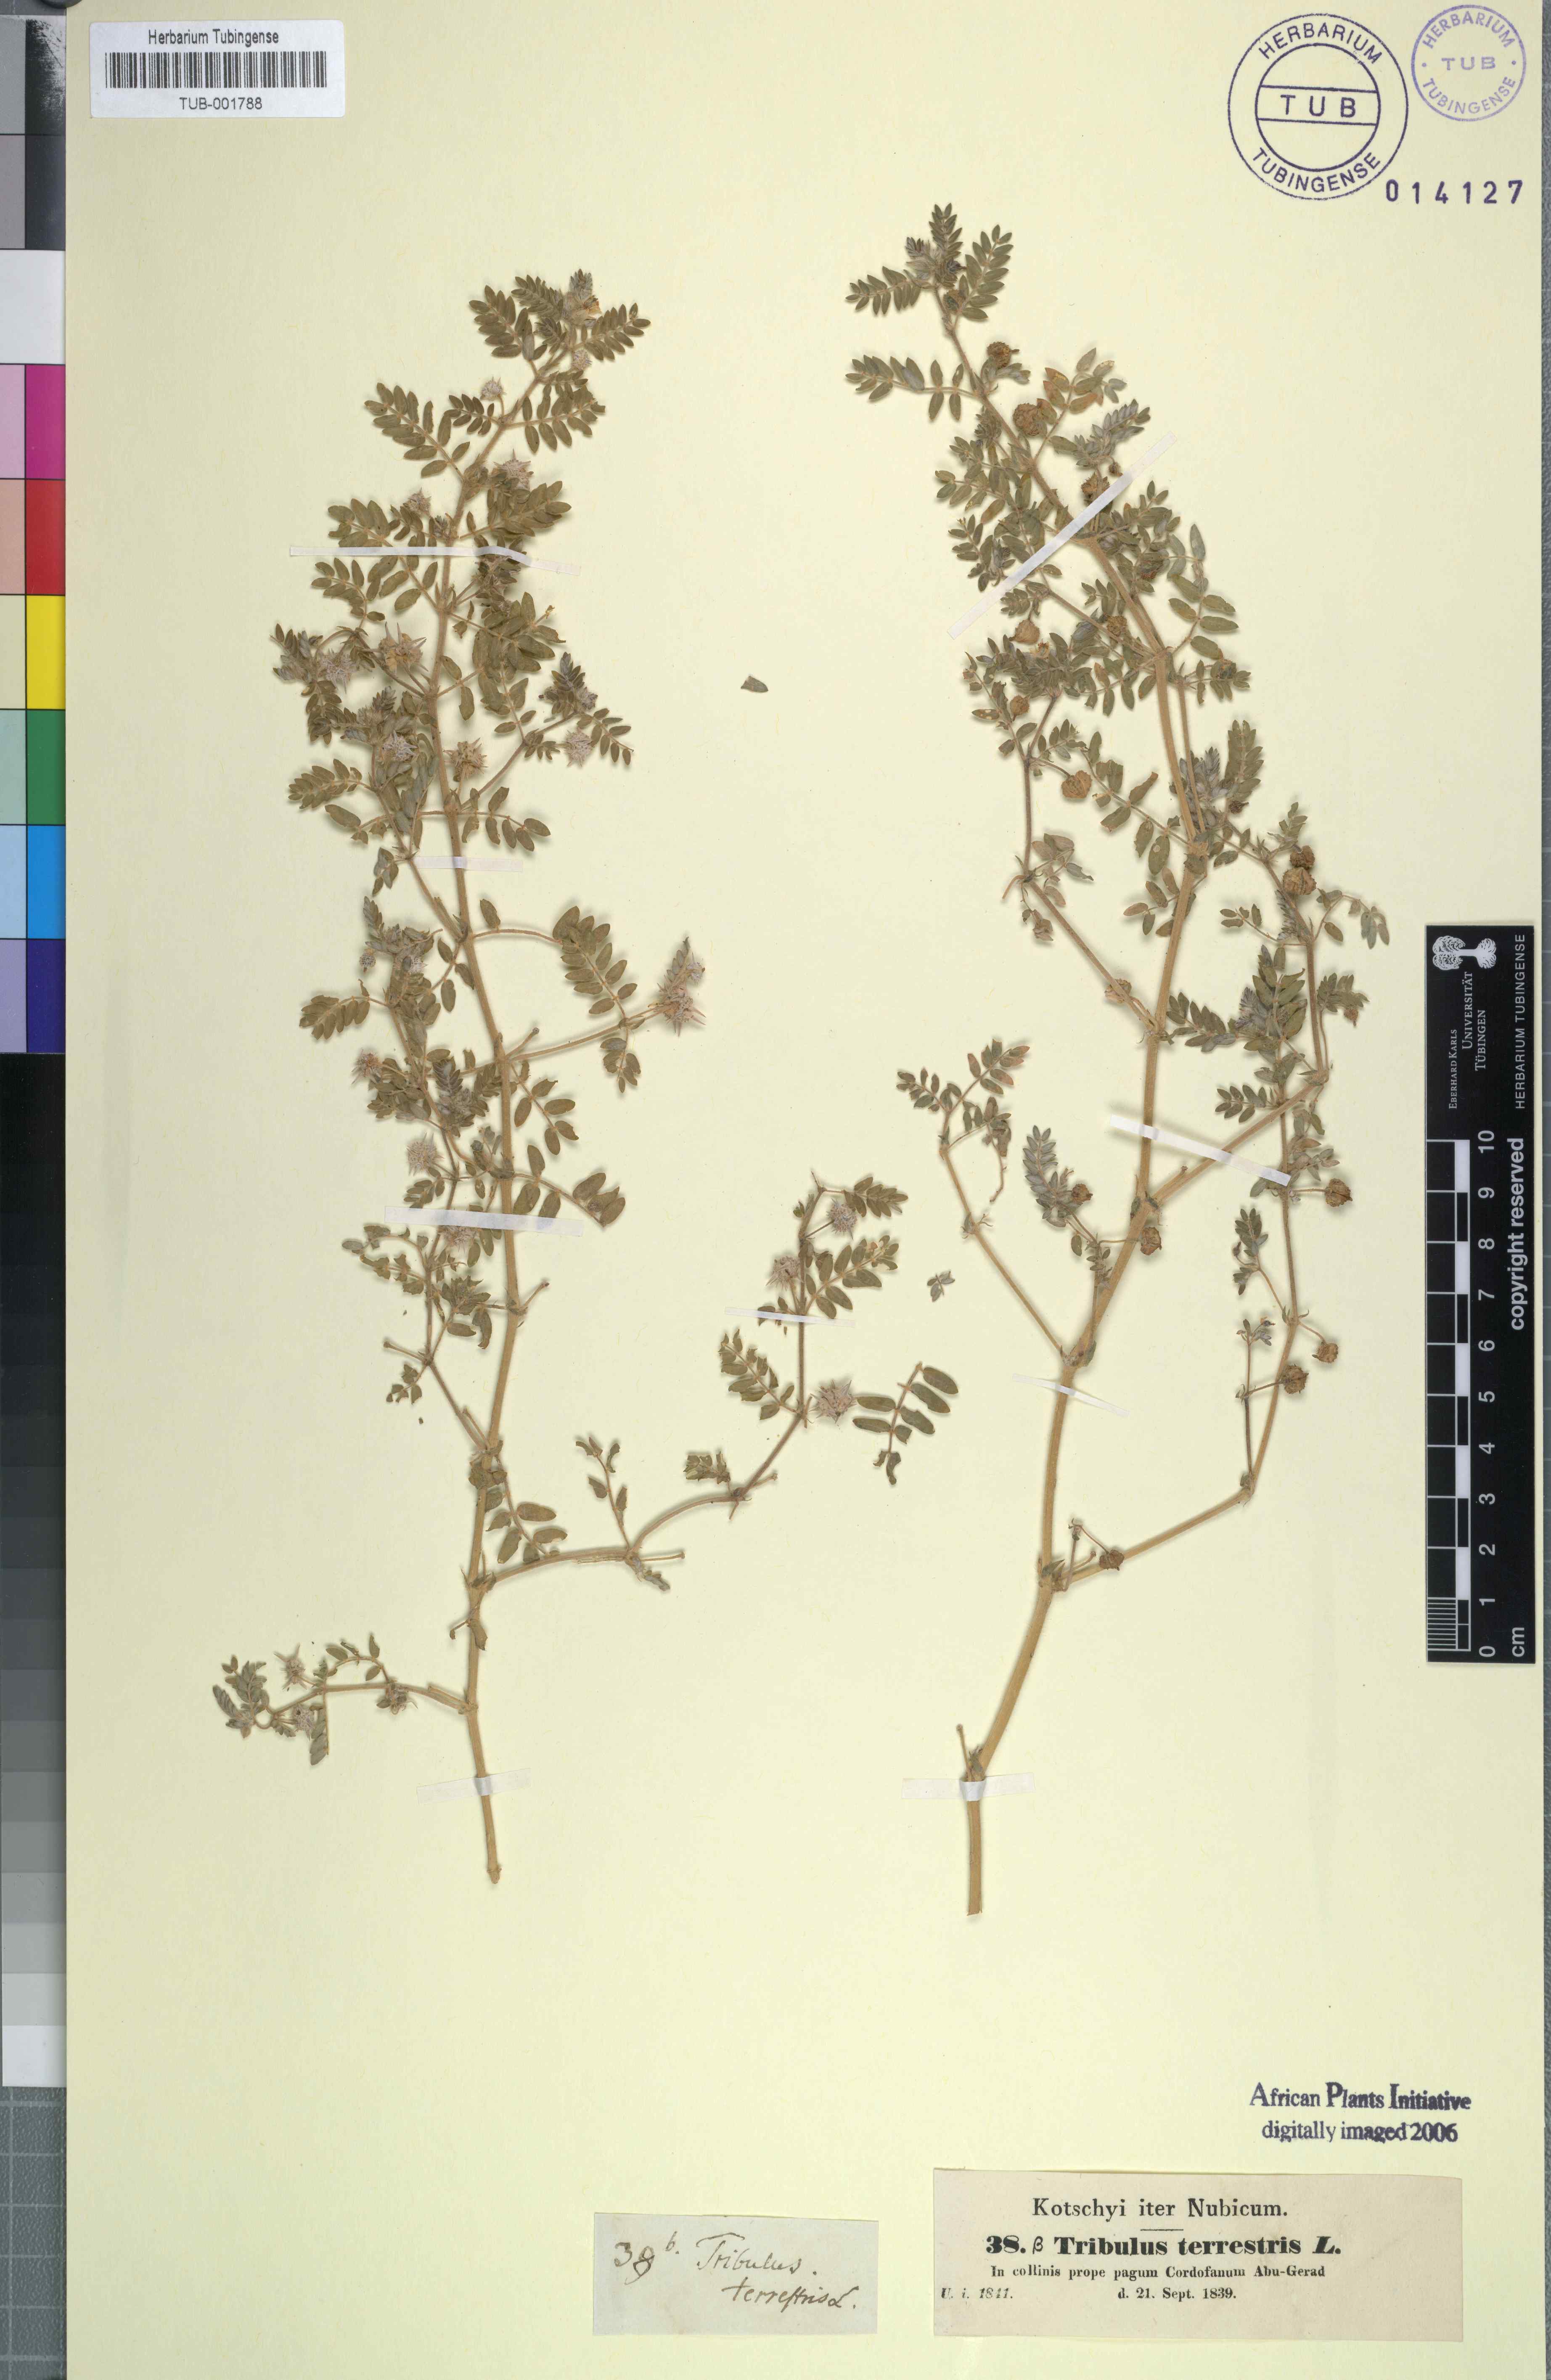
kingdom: Plantae
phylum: Tracheophyta
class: Magnoliopsida
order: Zygophyllales
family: Zygophyllaceae
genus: Tribulus
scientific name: Tribulus terrestris
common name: Puncturevine
